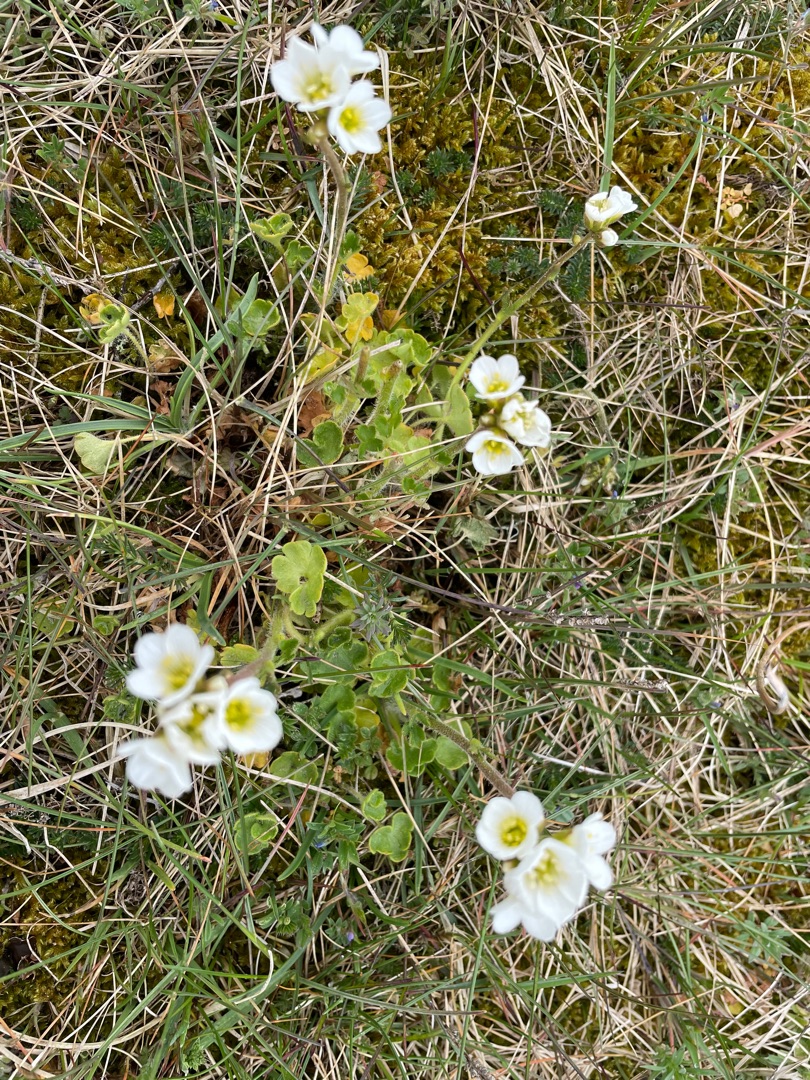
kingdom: Plantae
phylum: Tracheophyta
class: Magnoliopsida
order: Saxifragales
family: Saxifragaceae
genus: Saxifraga
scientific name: Saxifraga granulata
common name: Kornet stenbræk
